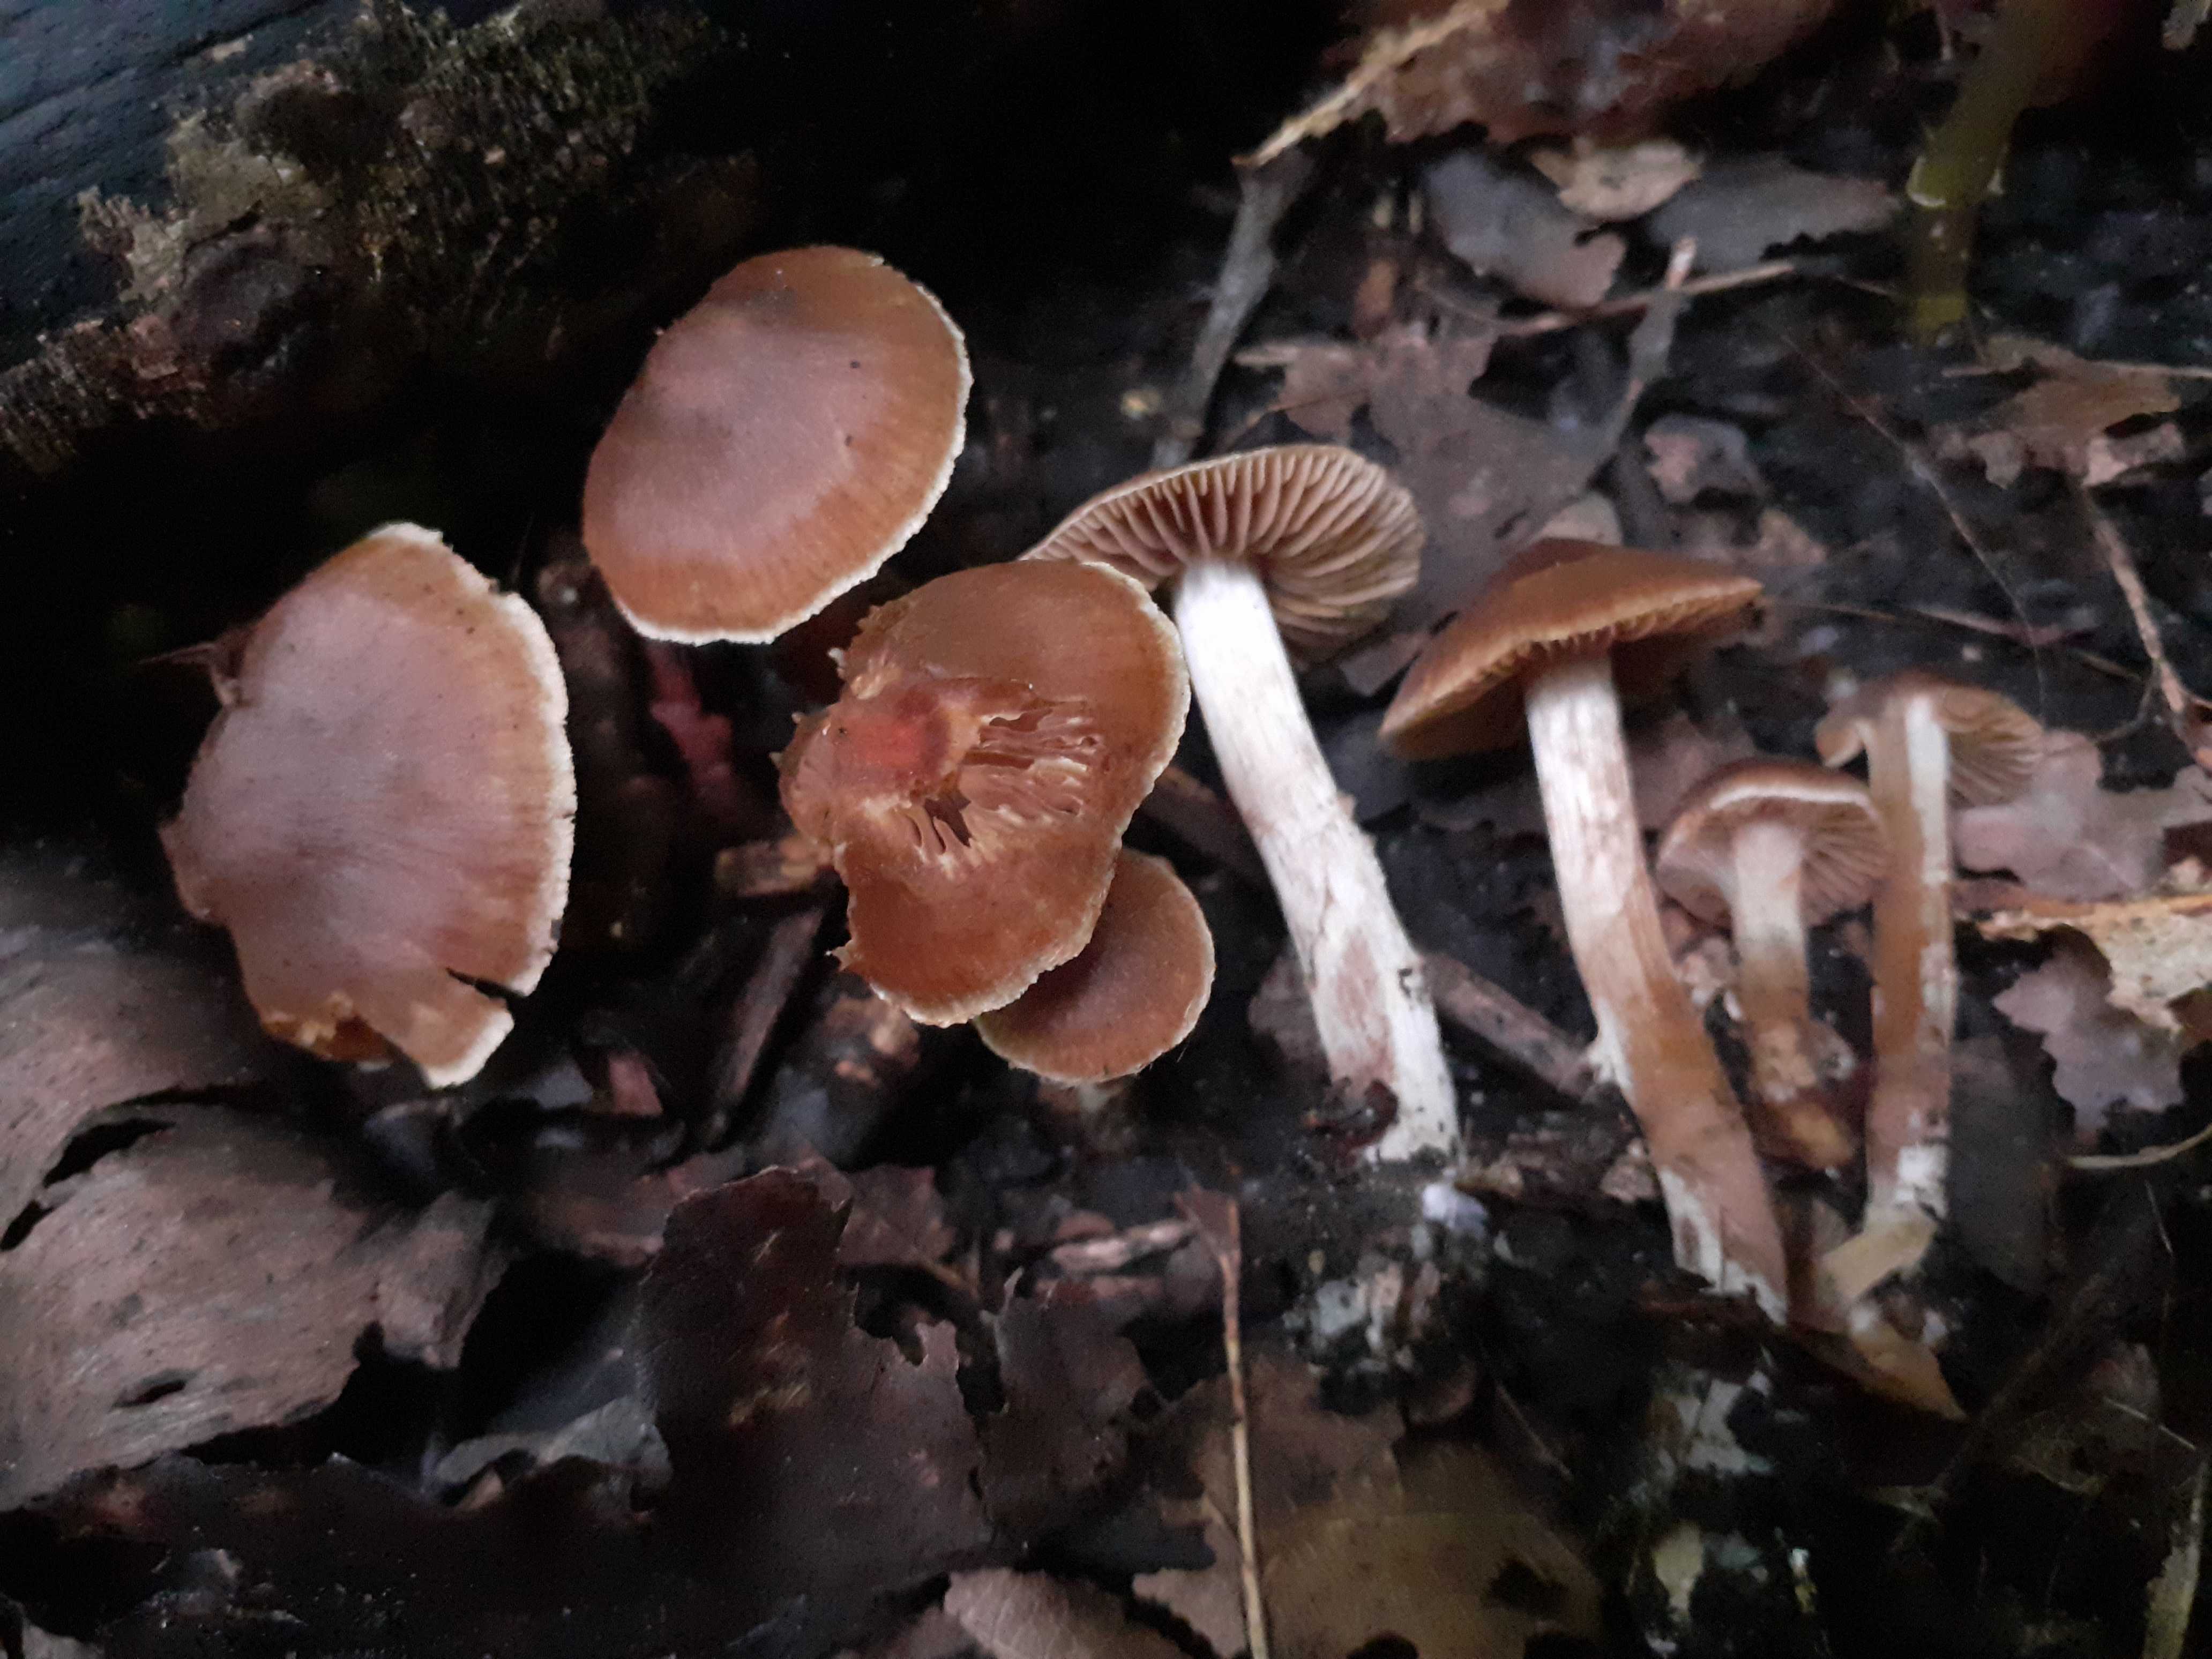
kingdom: Fungi
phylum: Basidiomycota
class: Agaricomycetes
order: Agaricales
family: Cortinariaceae
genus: Cortinarius
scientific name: Cortinarius punctatiformis
